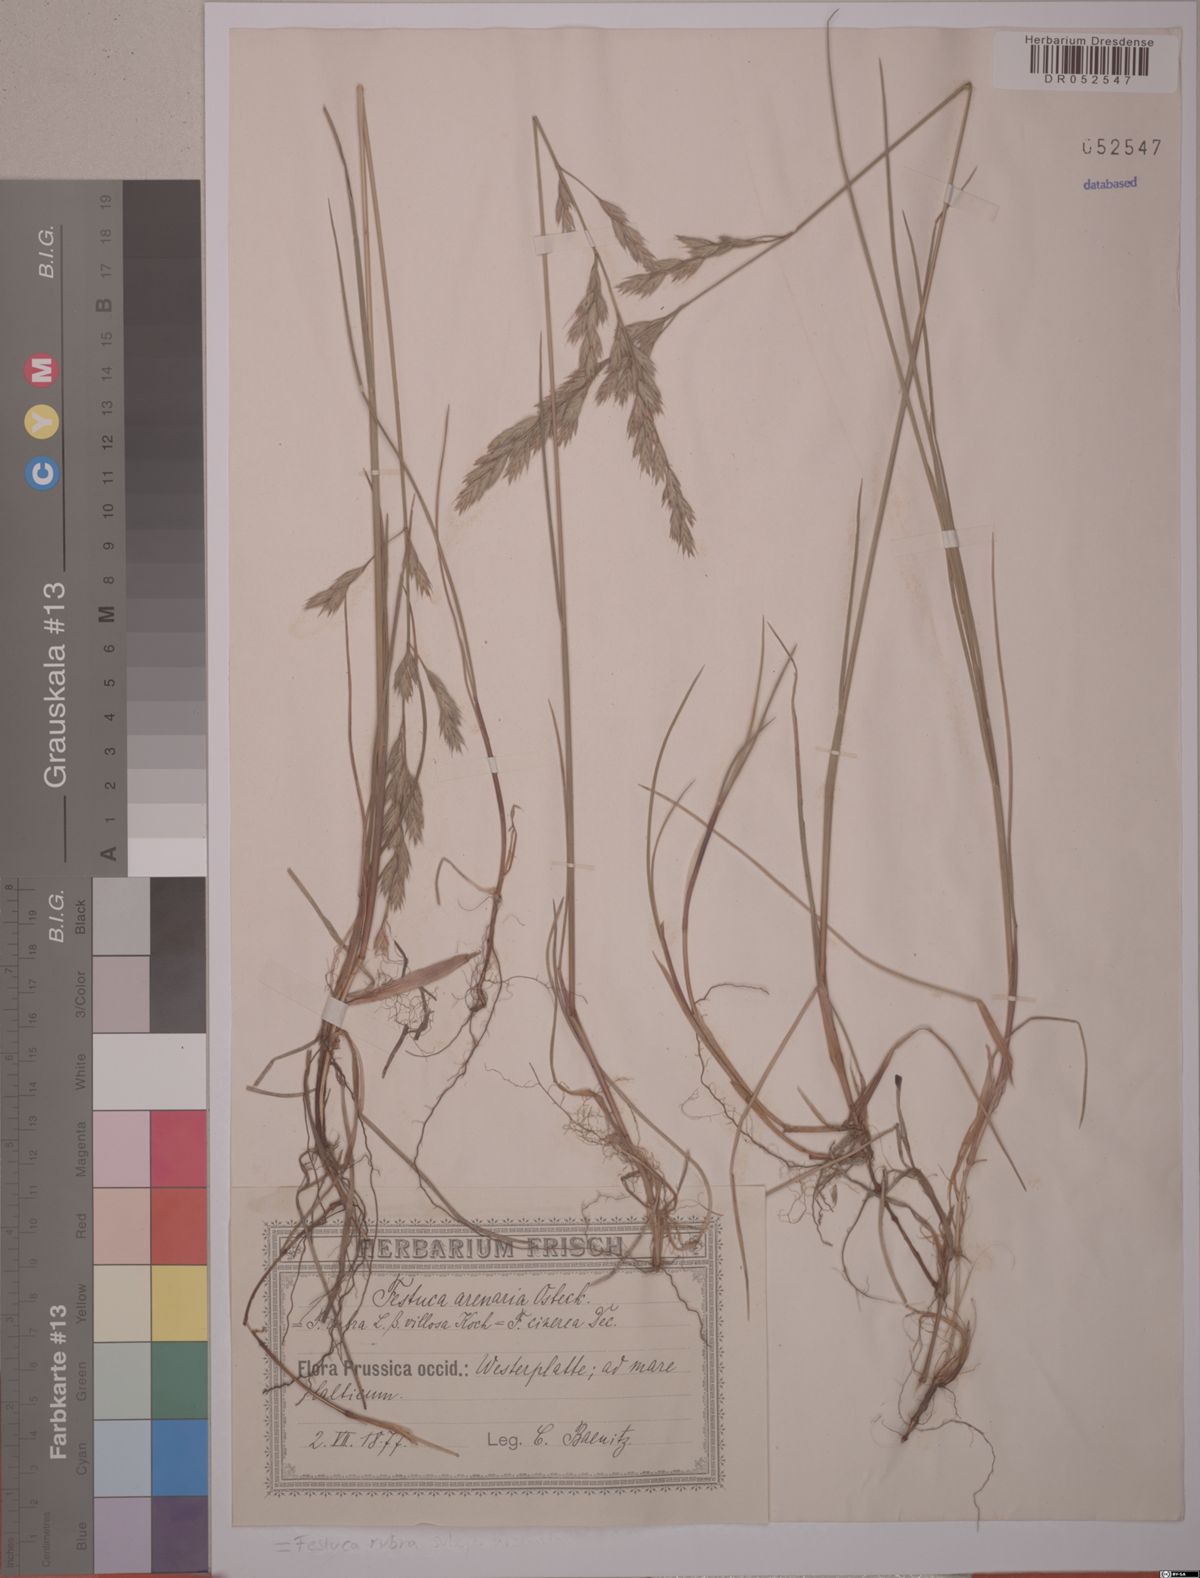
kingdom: Plantae
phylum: Tracheophyta
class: Liliopsida
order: Poales
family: Poaceae
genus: Festuca
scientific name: Festuca rubra
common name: Red fescue
